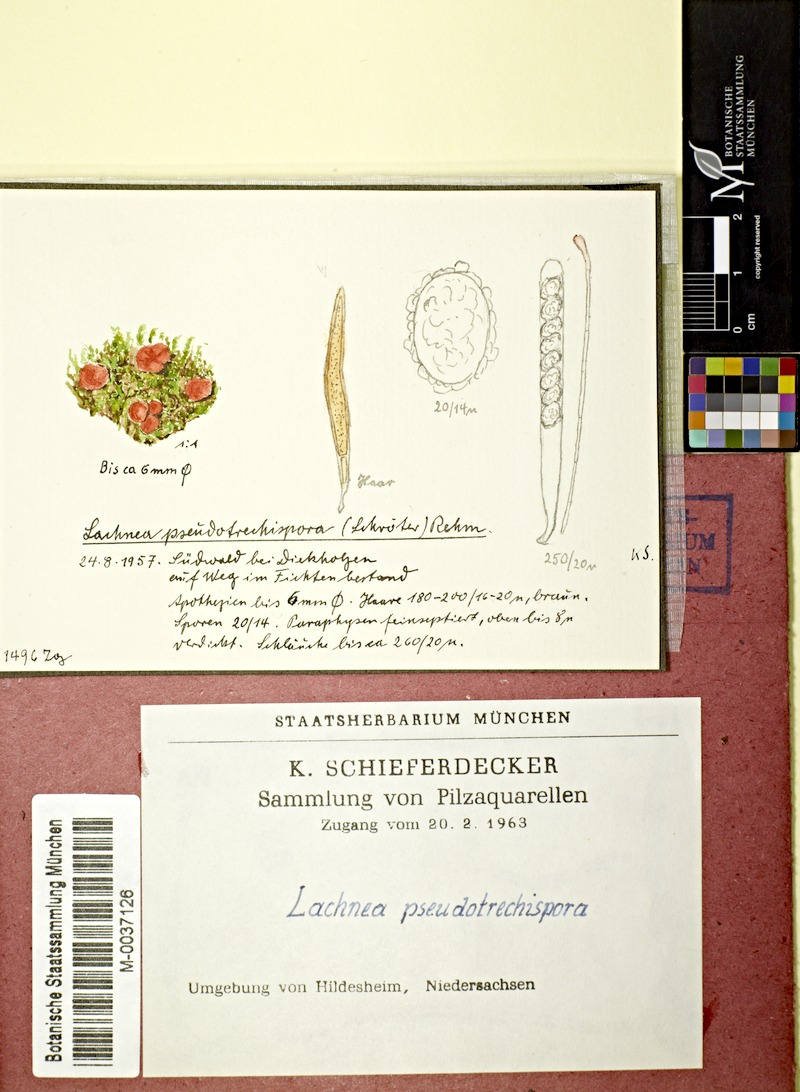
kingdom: Fungi
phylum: Ascomycota
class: Pezizomycetes
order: Pezizales
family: Pyronemataceae
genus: Scutellinia
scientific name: Scutellinia pseudotrechispora
